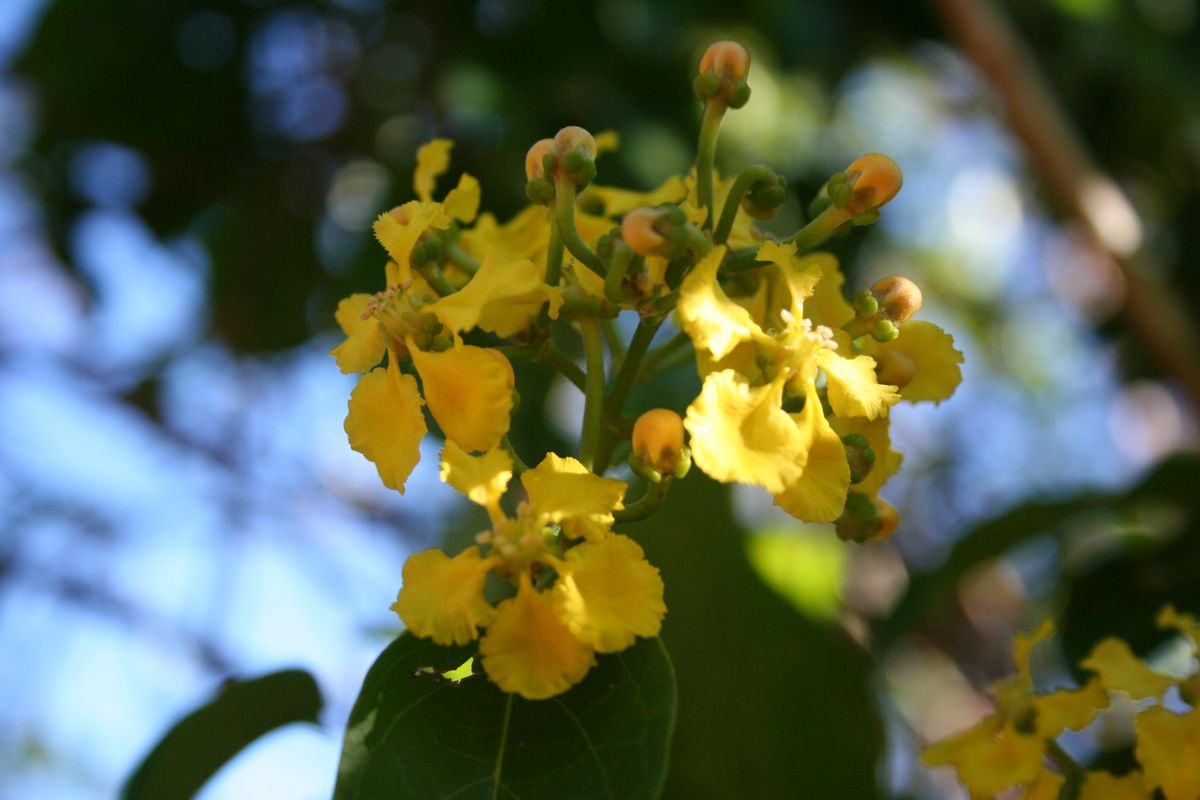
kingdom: Plantae
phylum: Tracheophyta
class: Magnoliopsida
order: Malpighiales
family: Malpighiaceae
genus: Callaeum
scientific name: Callaeum nicaraguense
